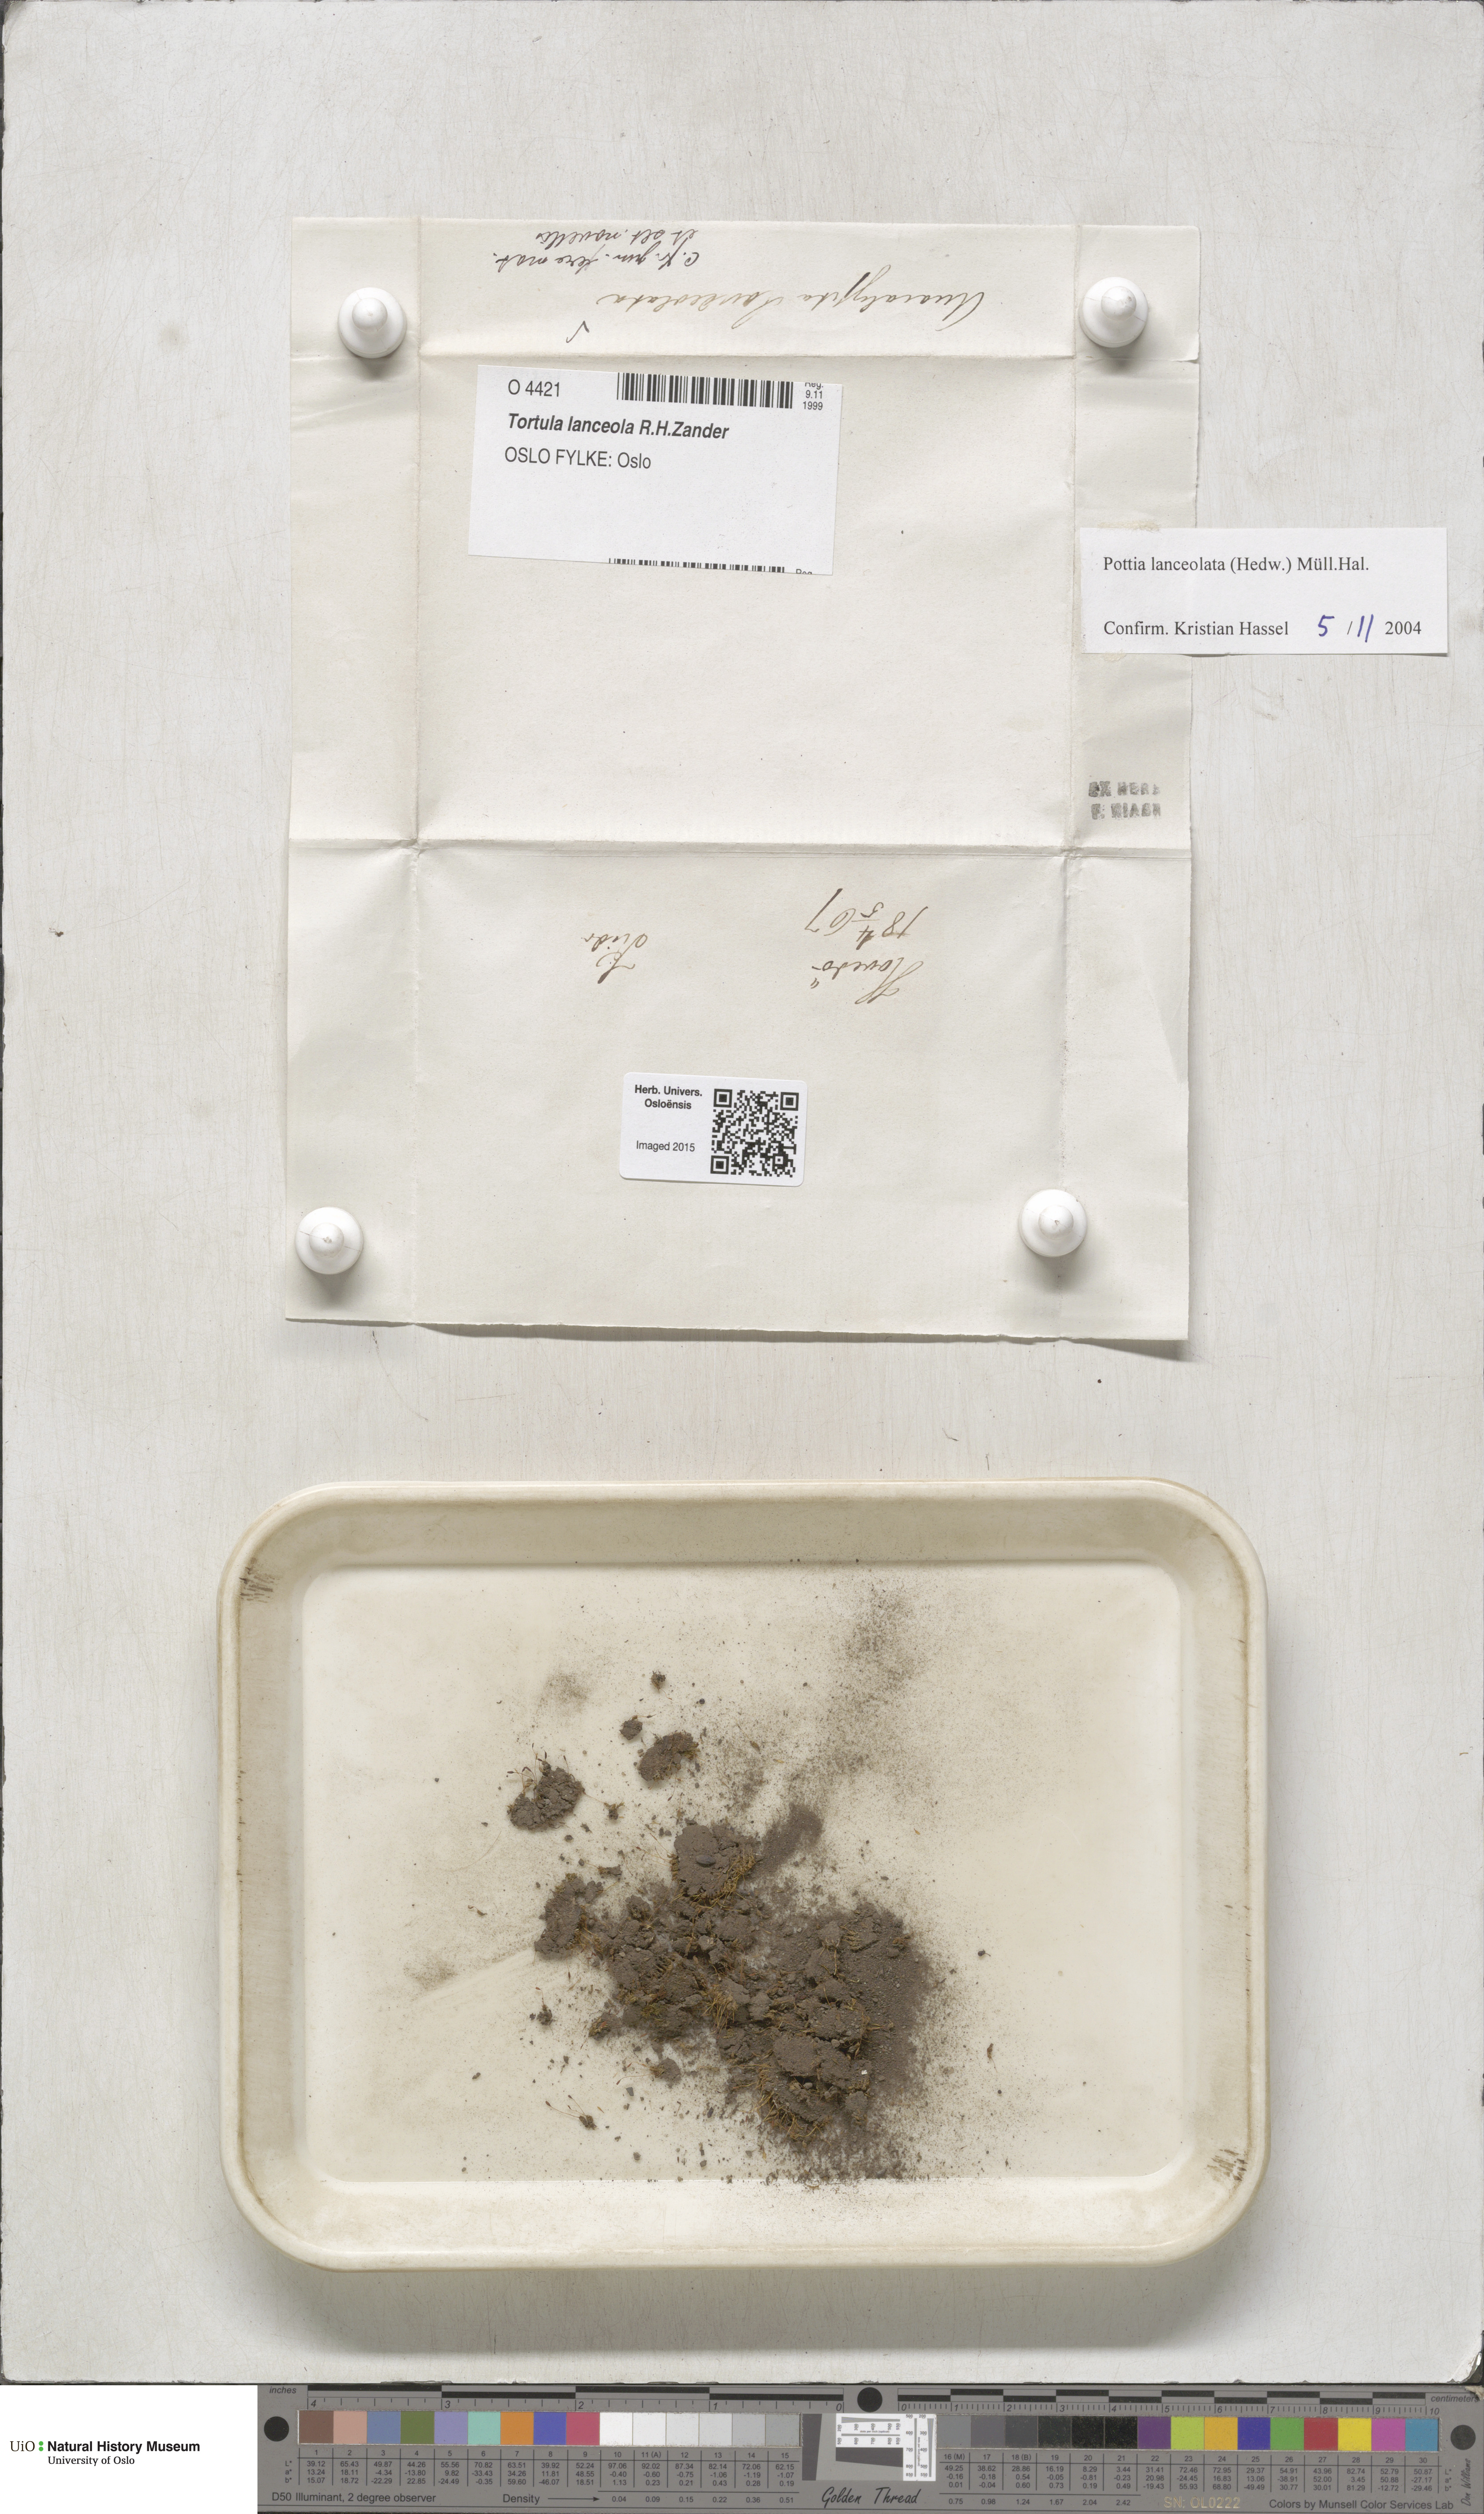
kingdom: Plantae
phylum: Bryophyta
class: Bryopsida
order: Pottiales
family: Pottiaceae
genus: Tortula
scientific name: Tortula lindbergii
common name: Lance-leaved pottia
